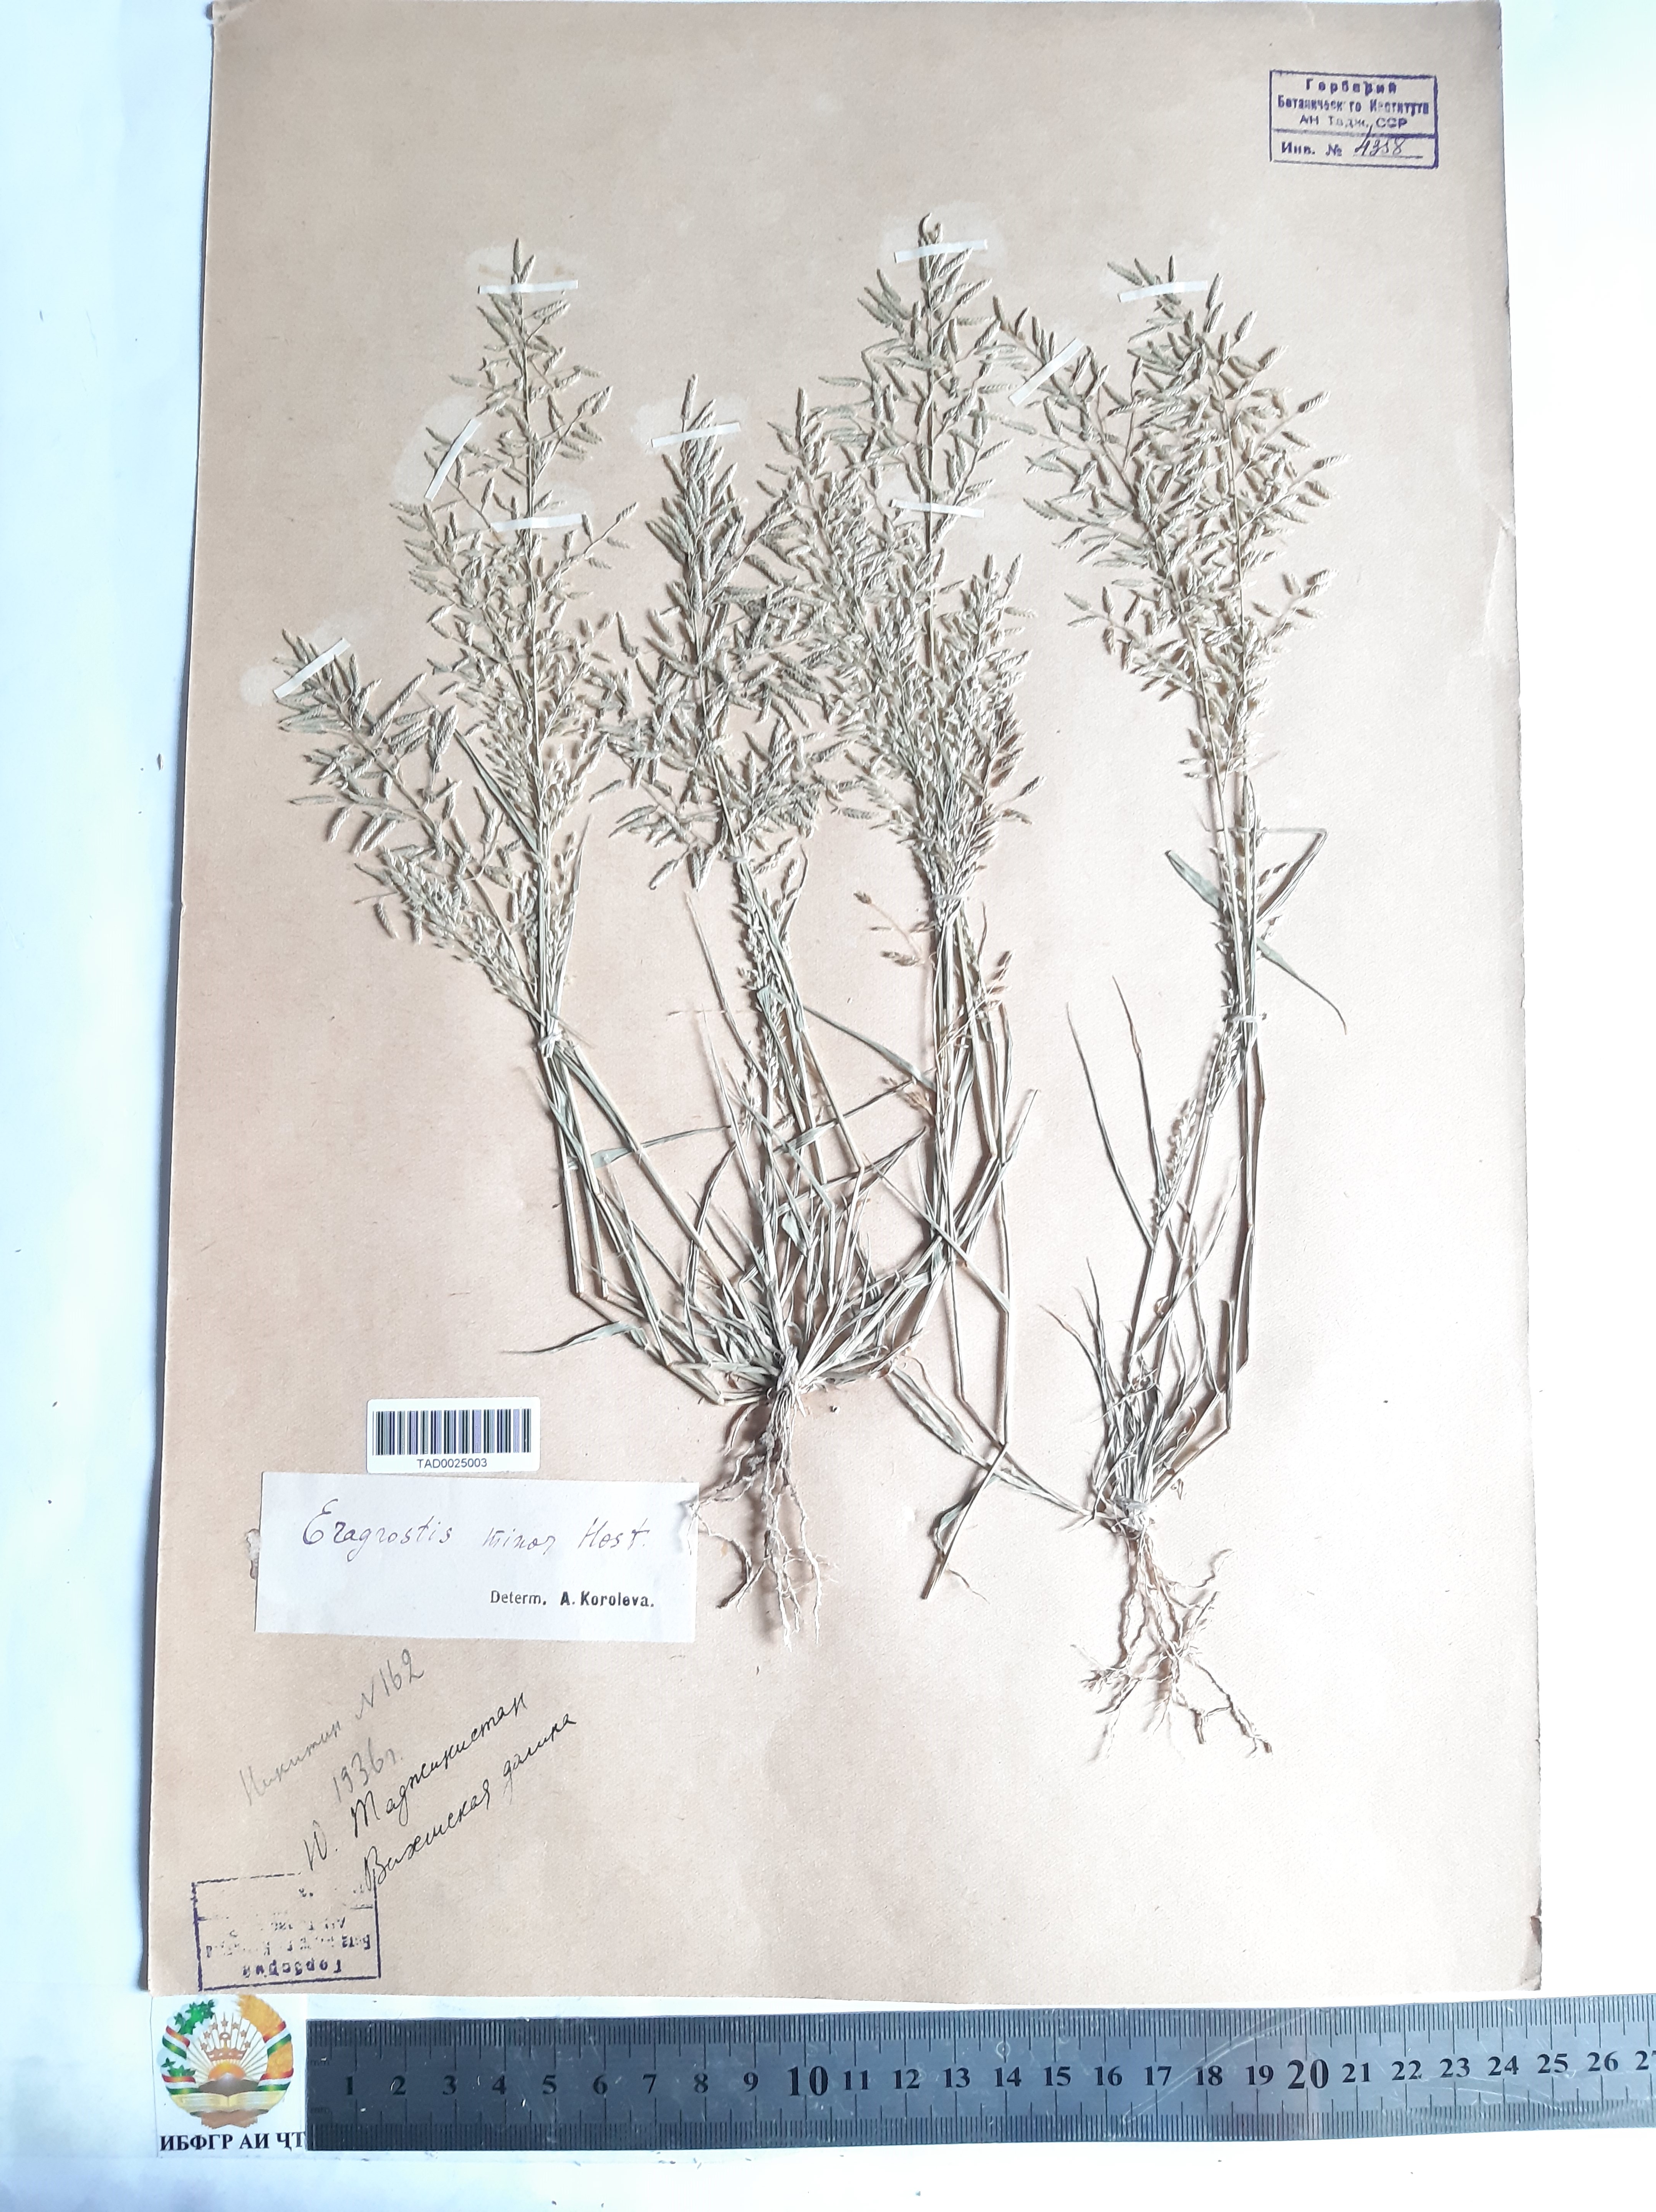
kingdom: Plantae
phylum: Tracheophyta
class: Liliopsida
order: Poales
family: Poaceae
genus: Eragrostis
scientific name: Eragrostis minor
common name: Small love-grass
